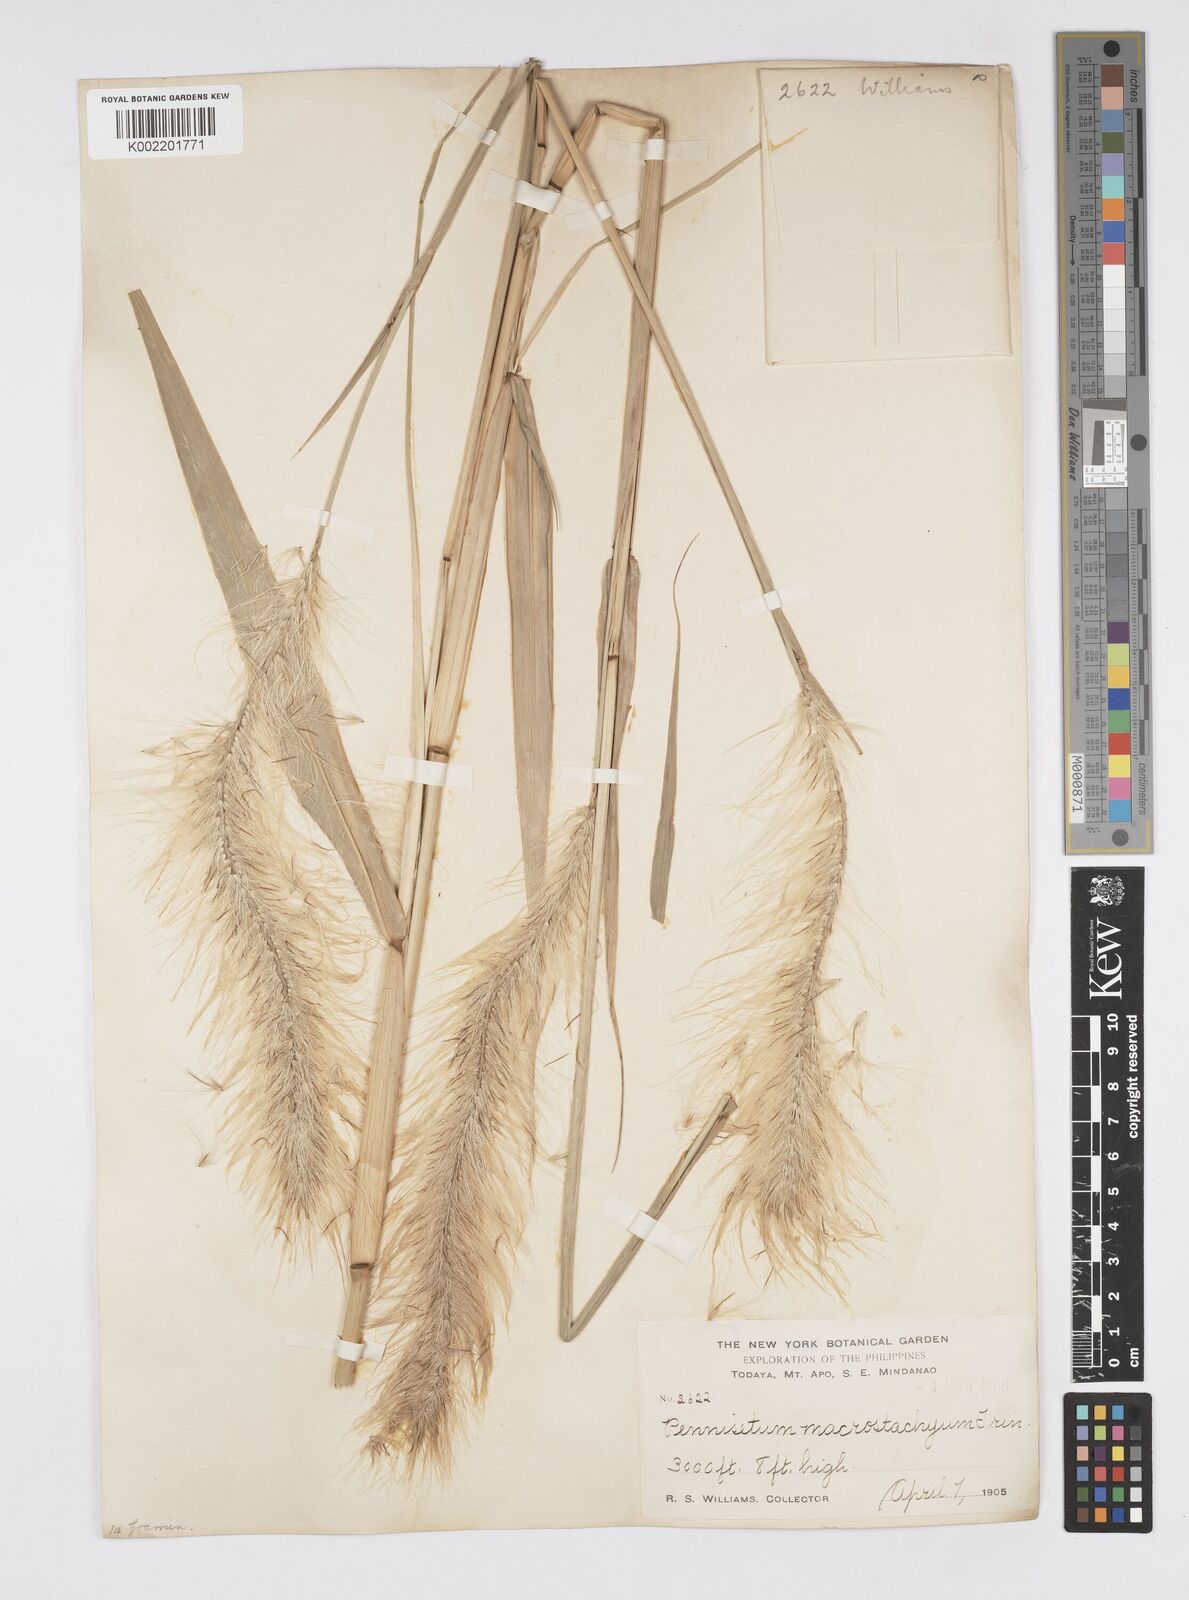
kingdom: Plantae
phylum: Tracheophyta
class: Liliopsida
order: Poales
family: Poaceae
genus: Cenchrus
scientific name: Cenchrus purpureus
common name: Elephant grass
